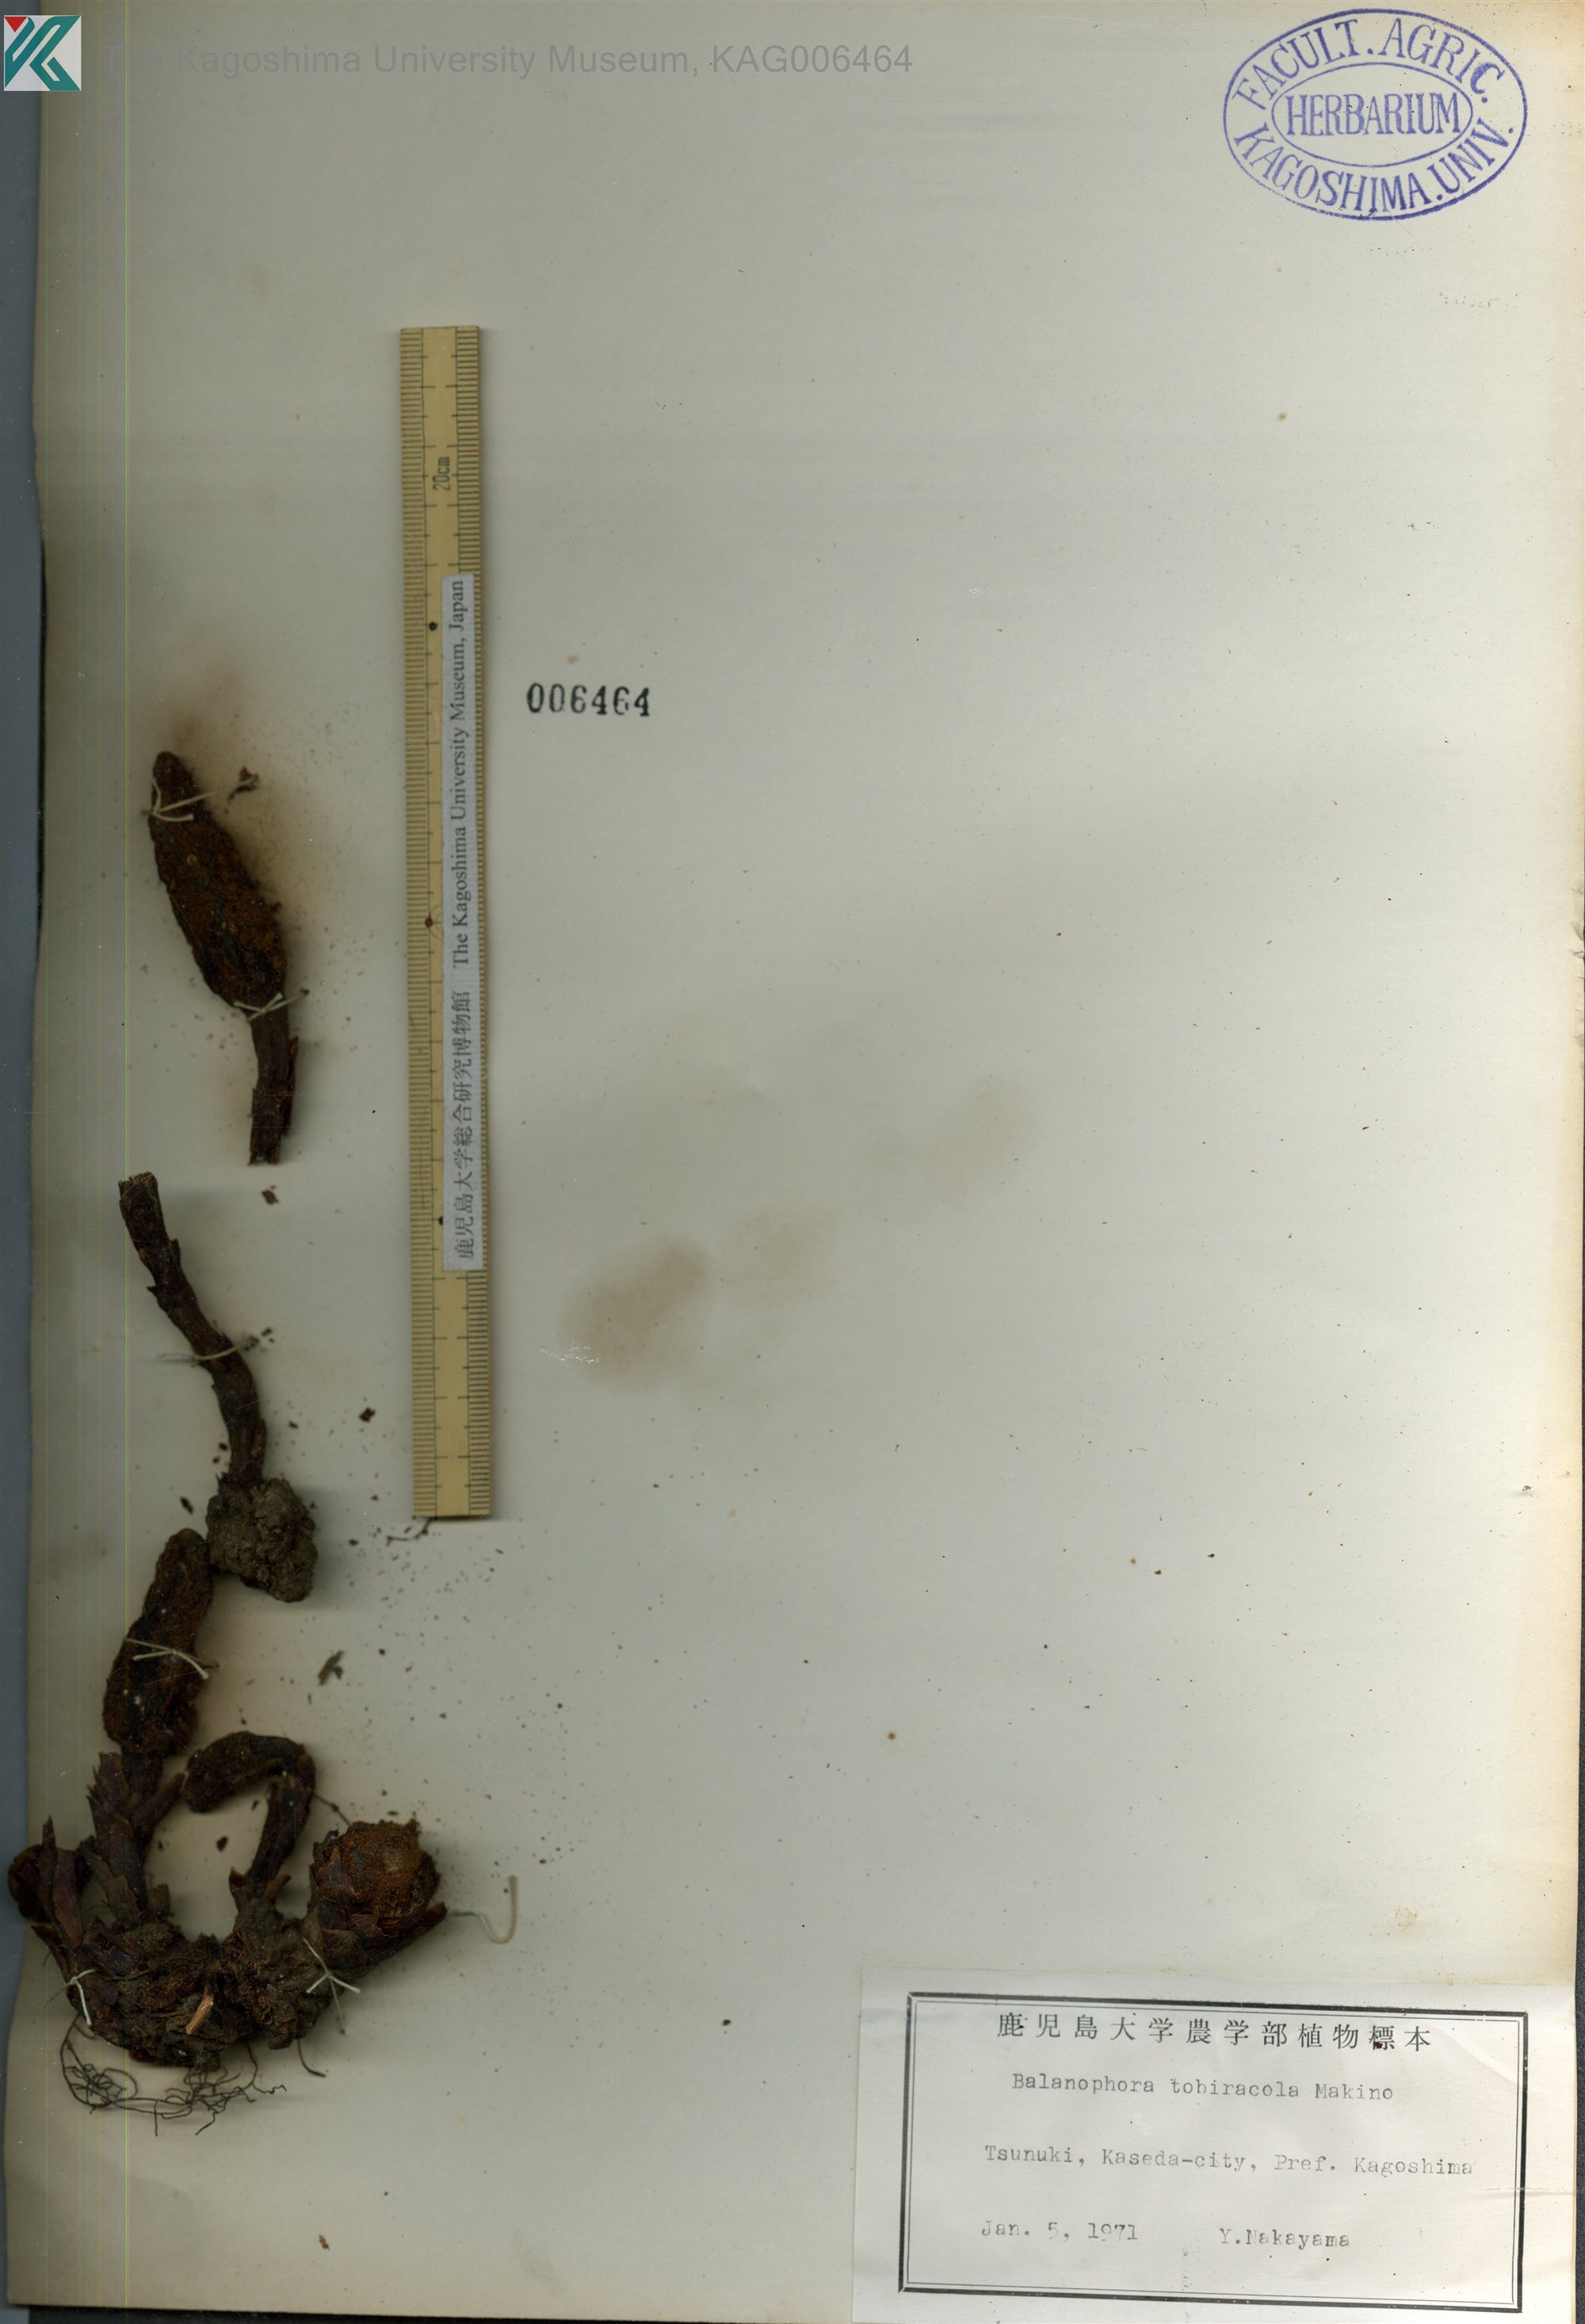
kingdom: Plantae
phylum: Tracheophyta
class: Magnoliopsida
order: Santalales
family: Balanophoraceae
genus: Balanophora
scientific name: Balanophora japonica
